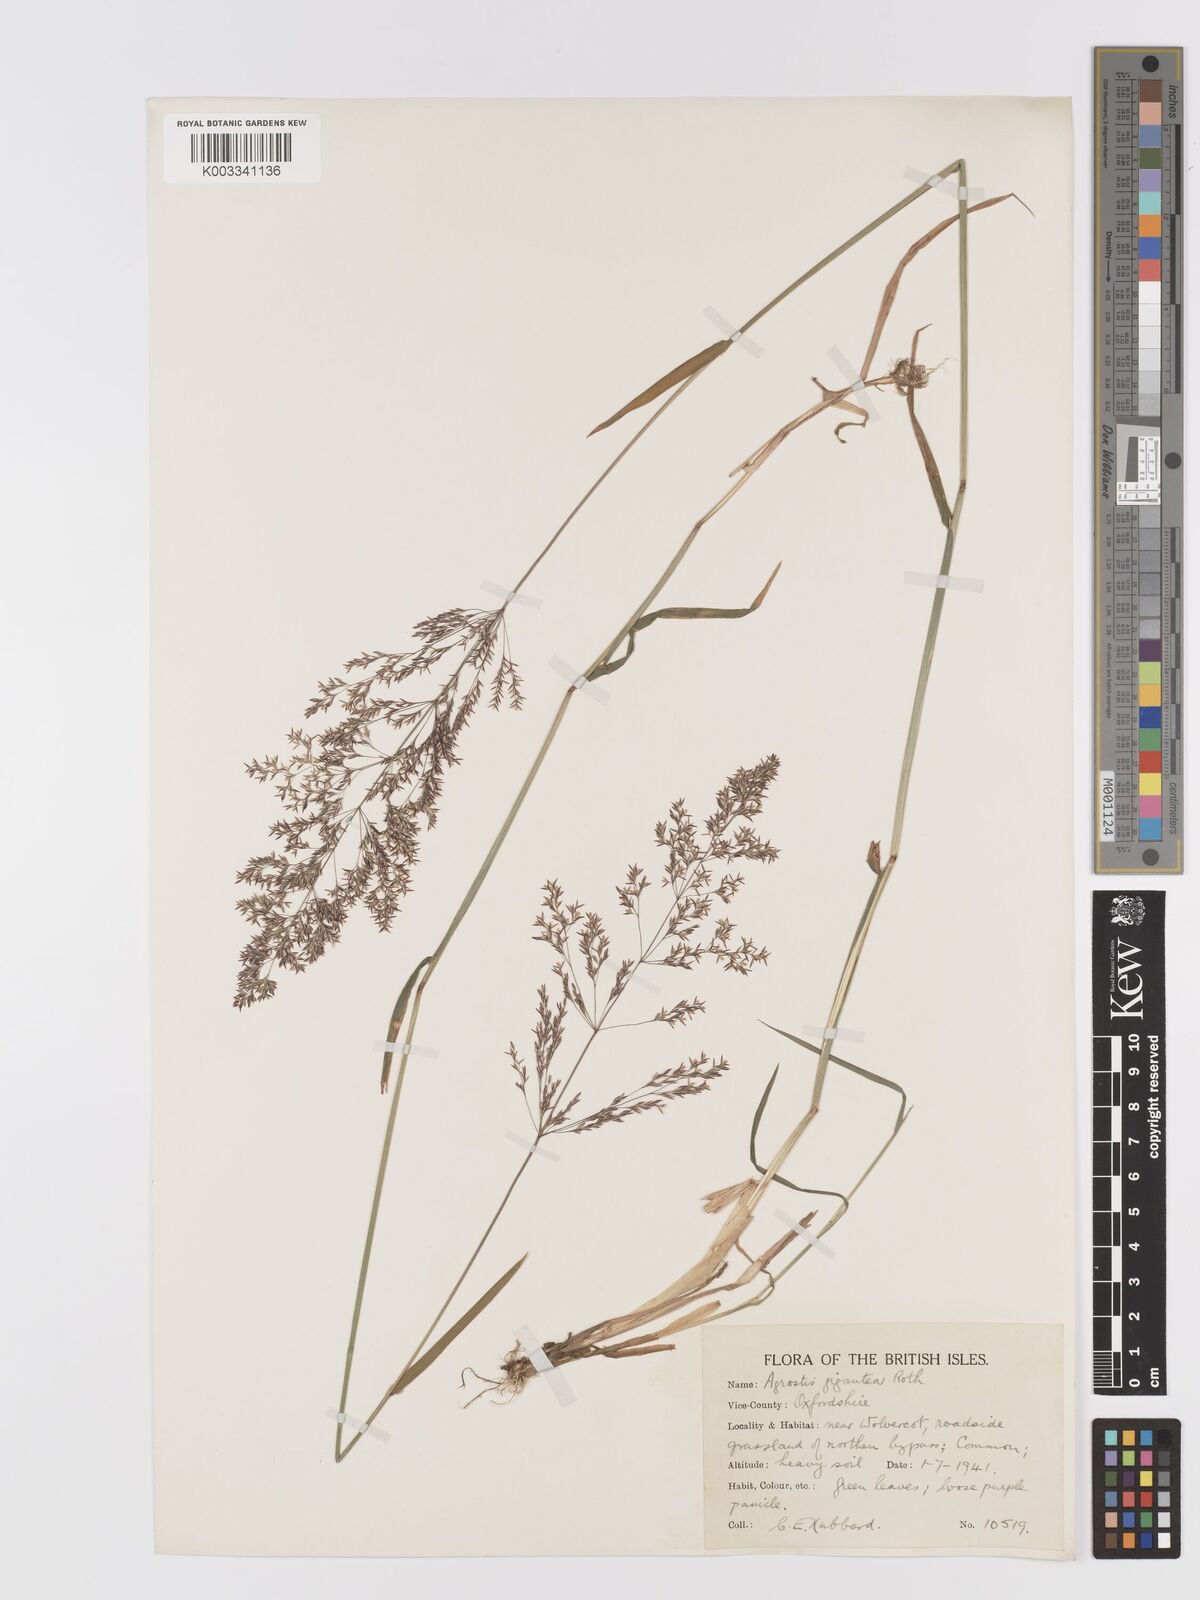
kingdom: Plantae
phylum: Tracheophyta
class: Liliopsida
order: Poales
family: Poaceae
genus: Agrostis
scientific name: Agrostis gigantea
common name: Black bent
